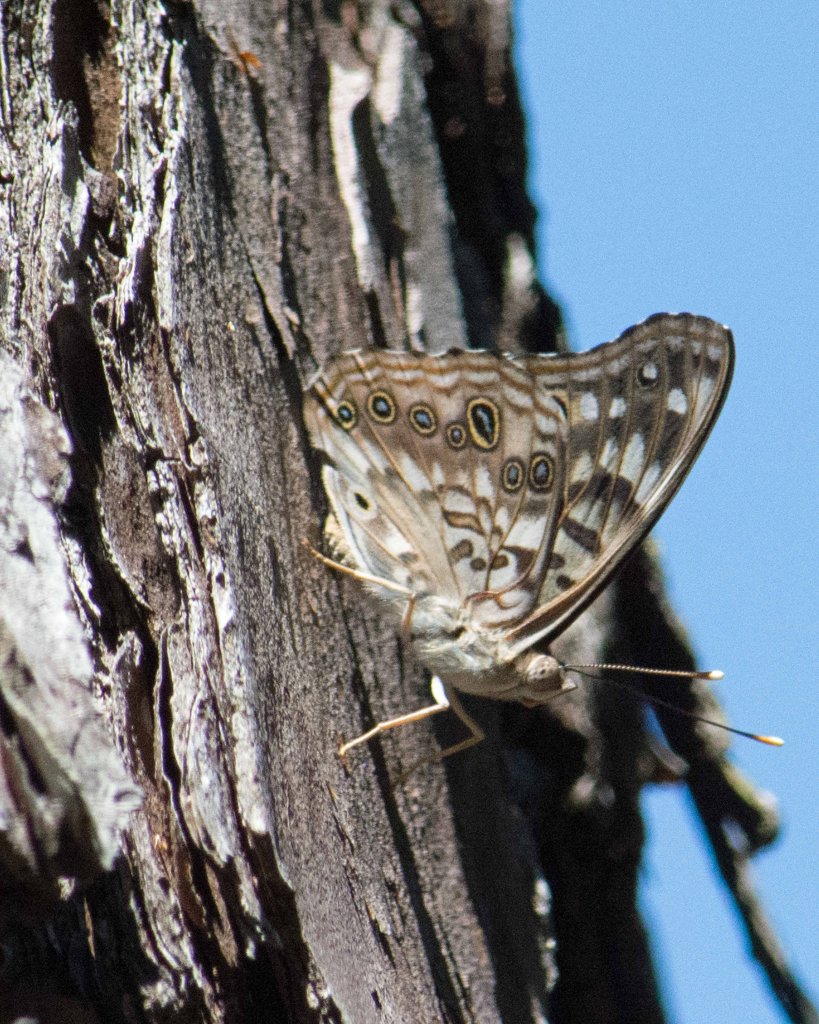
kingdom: Animalia
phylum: Arthropoda
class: Insecta
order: Lepidoptera
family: Nymphalidae
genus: Asterocampa
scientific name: Asterocampa celtis
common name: Hackberry Emperor
